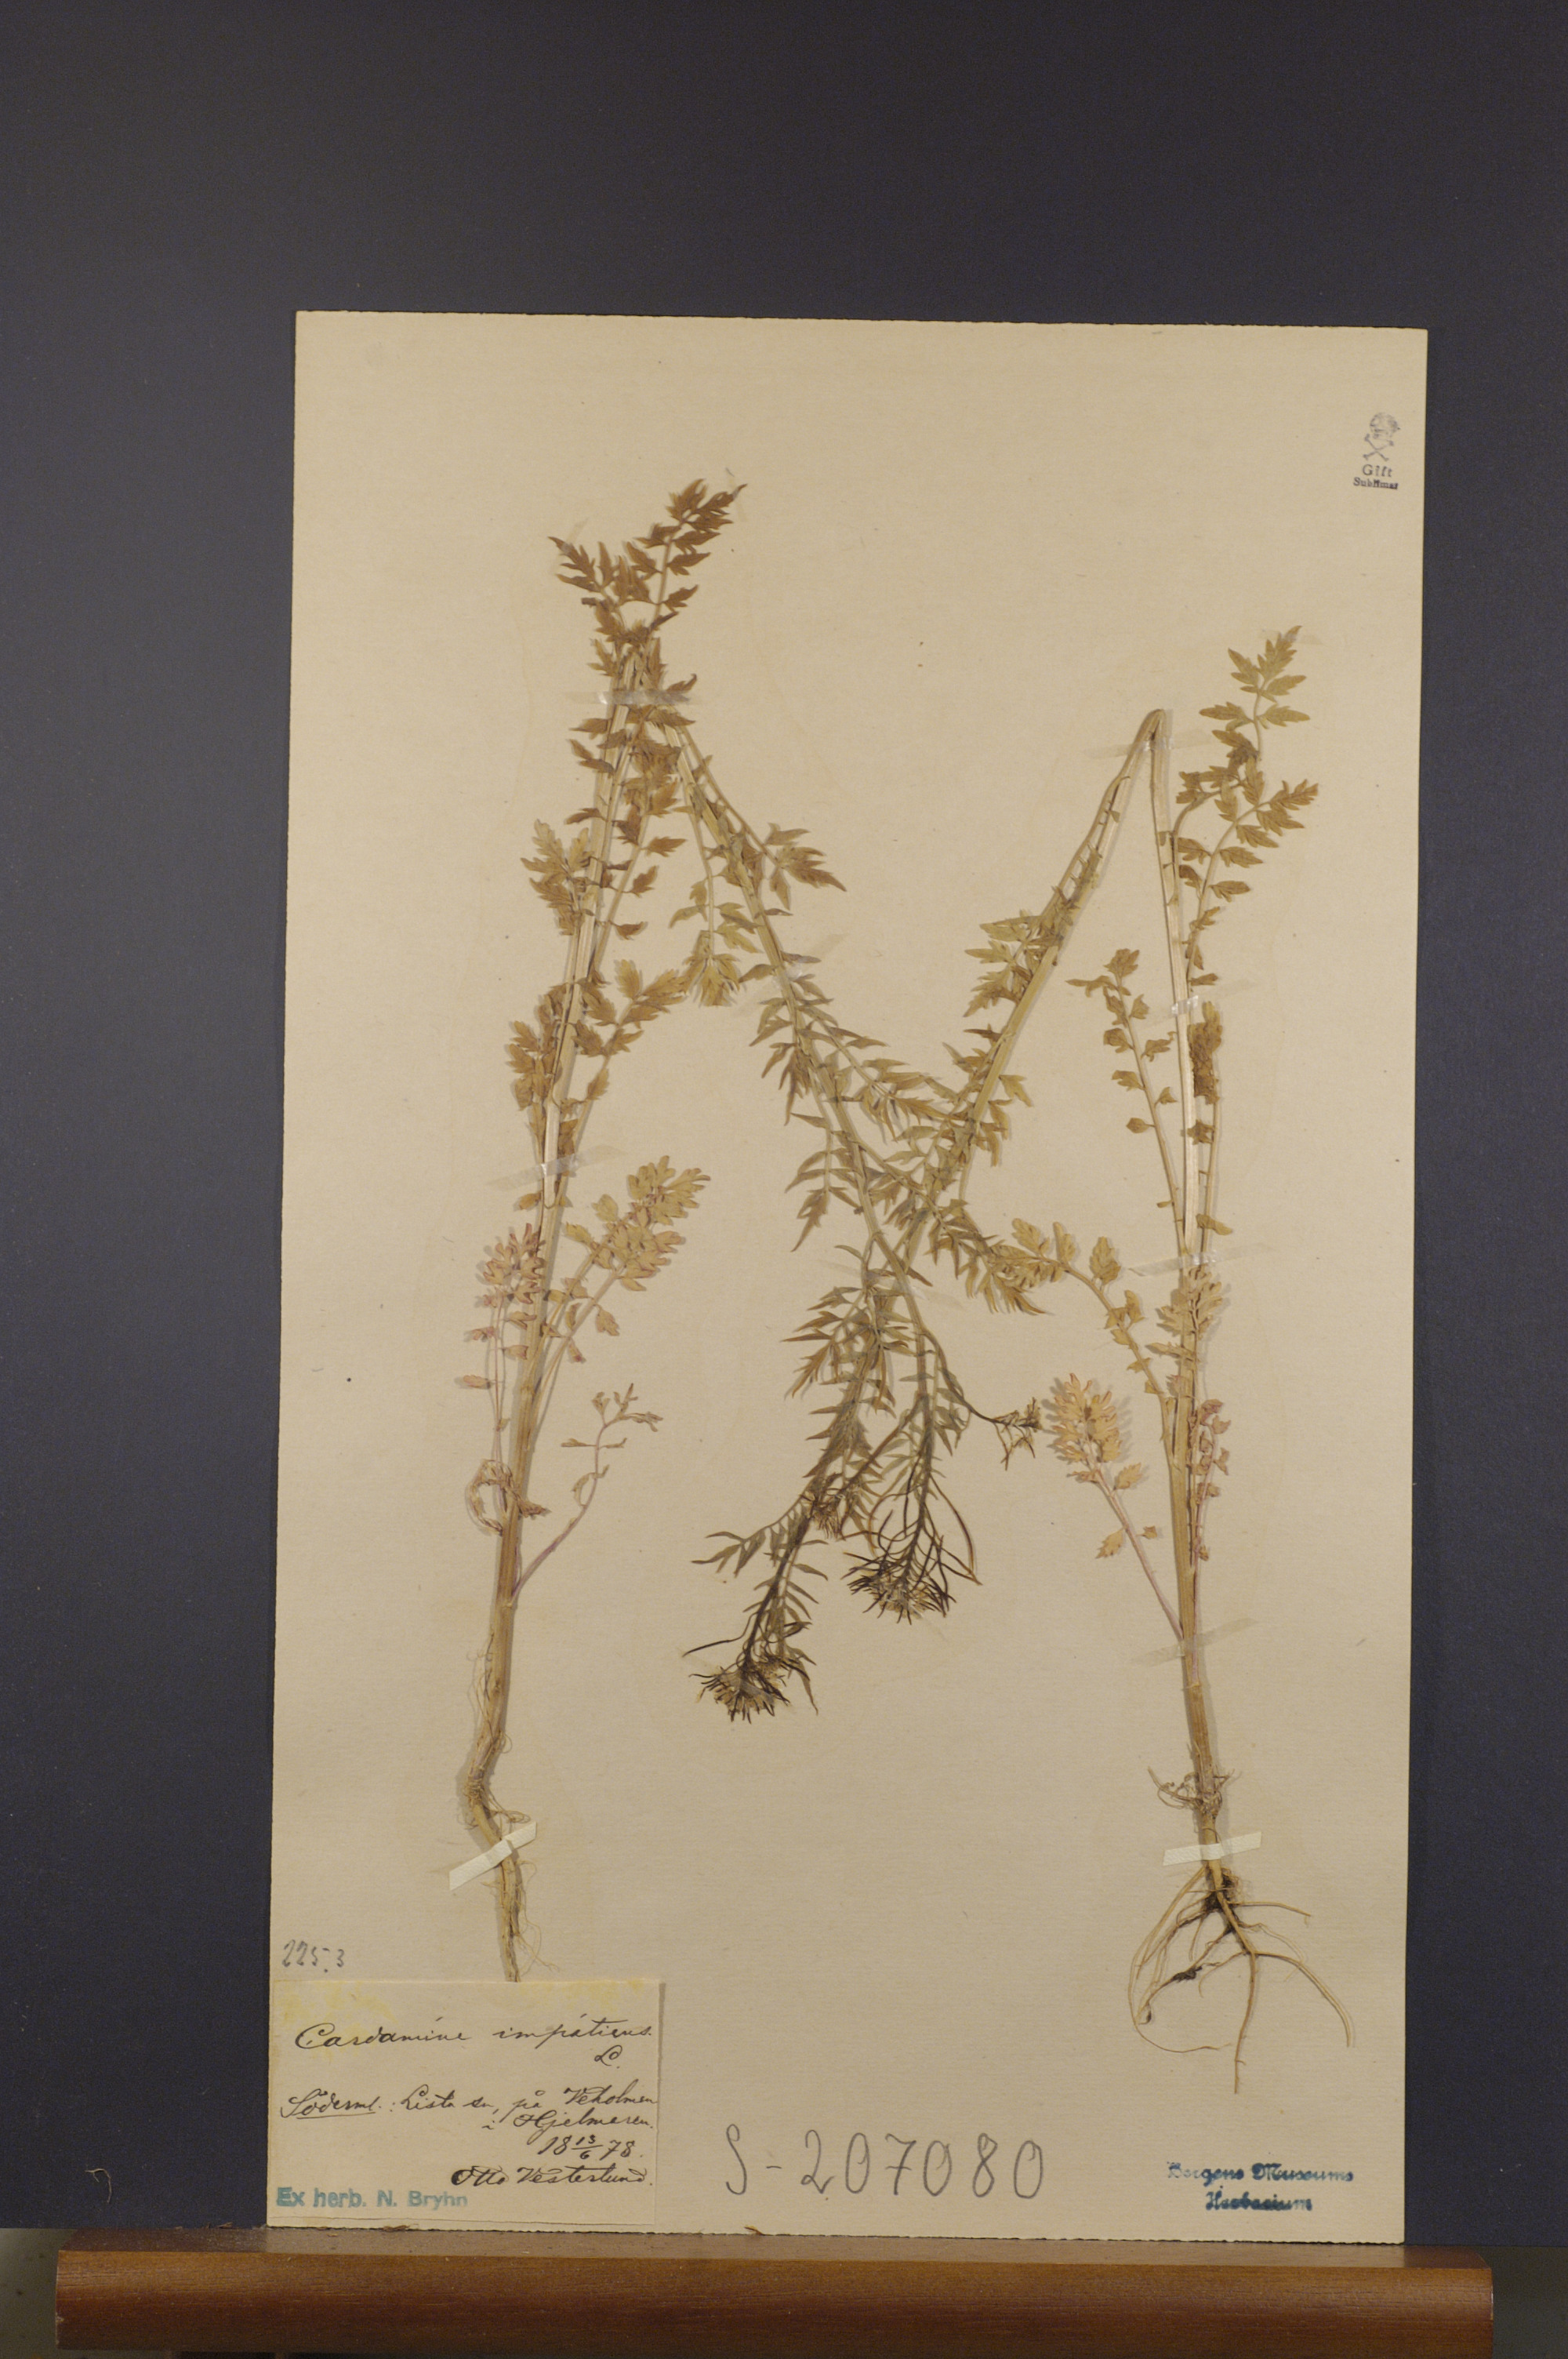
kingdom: Plantae
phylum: Tracheophyta
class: Magnoliopsida
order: Brassicales
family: Brassicaceae
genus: Cardamine
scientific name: Cardamine impatiens
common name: Narrow-leaved bitter-cress
